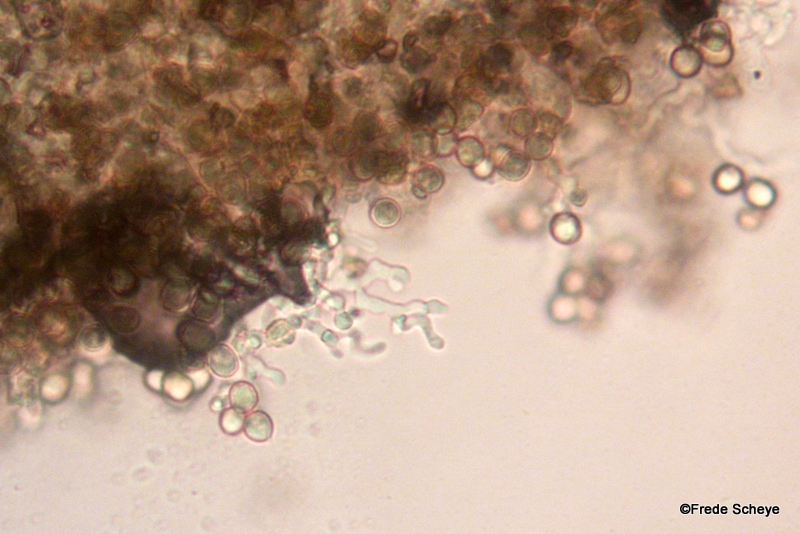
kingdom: Fungi
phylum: Basidiomycota
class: Agaricomycetes
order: Agaricales
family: Crepidotaceae
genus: Crepidotus
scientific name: Crepidotus cesatii
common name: almindelig muslingesvamp
